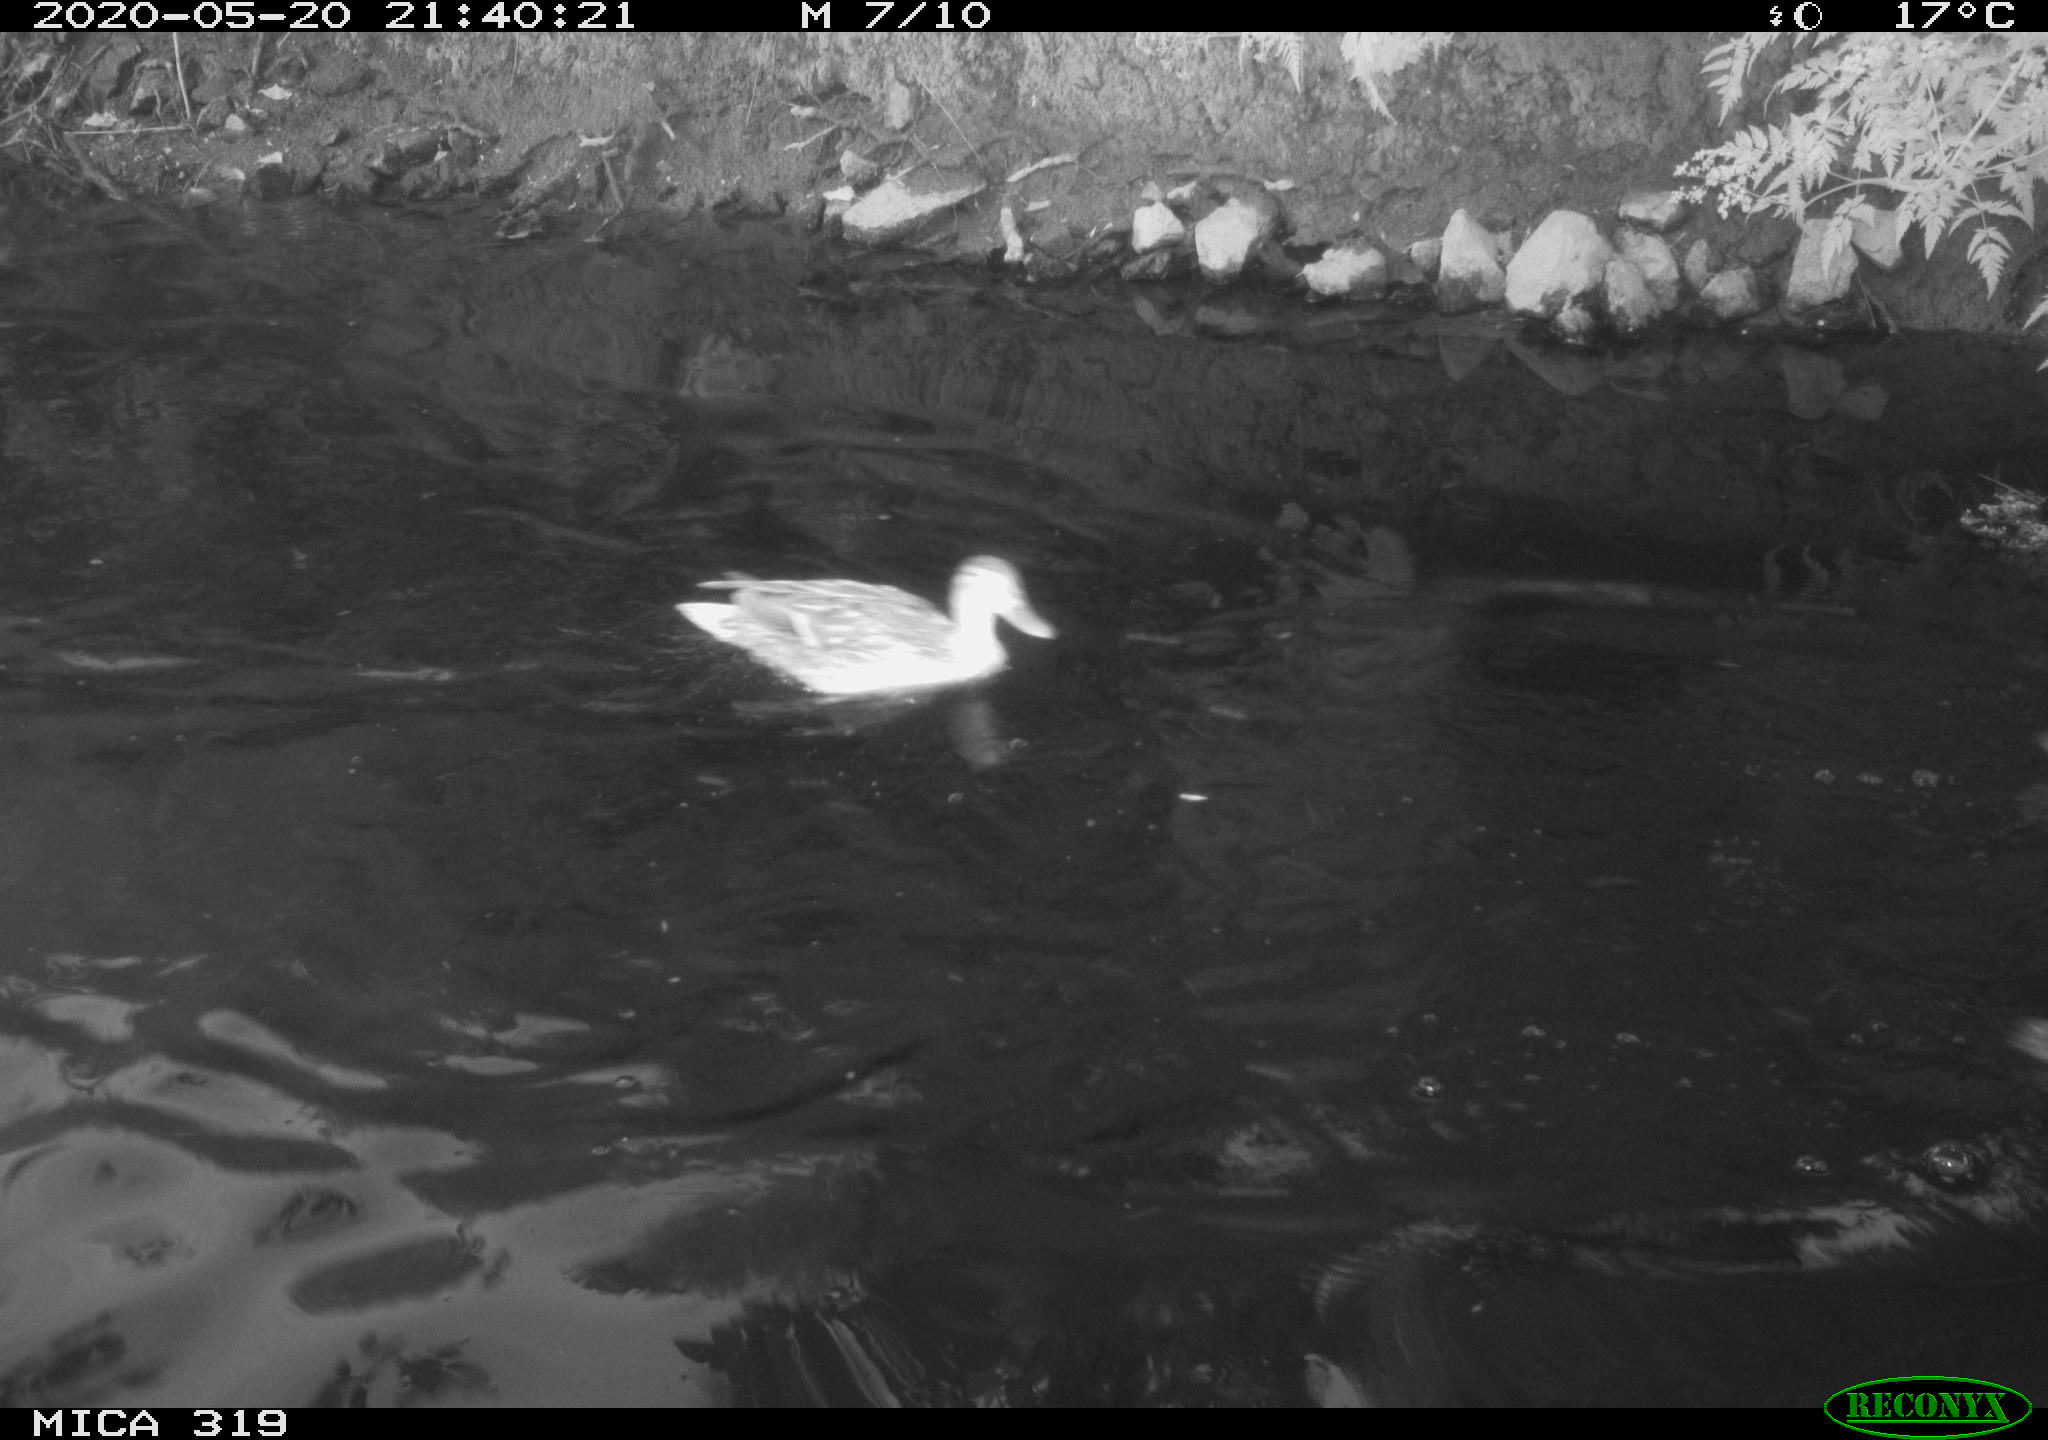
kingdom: Animalia
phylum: Chordata
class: Aves
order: Anseriformes
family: Anatidae
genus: Anas
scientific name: Anas platyrhynchos
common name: Mallard
